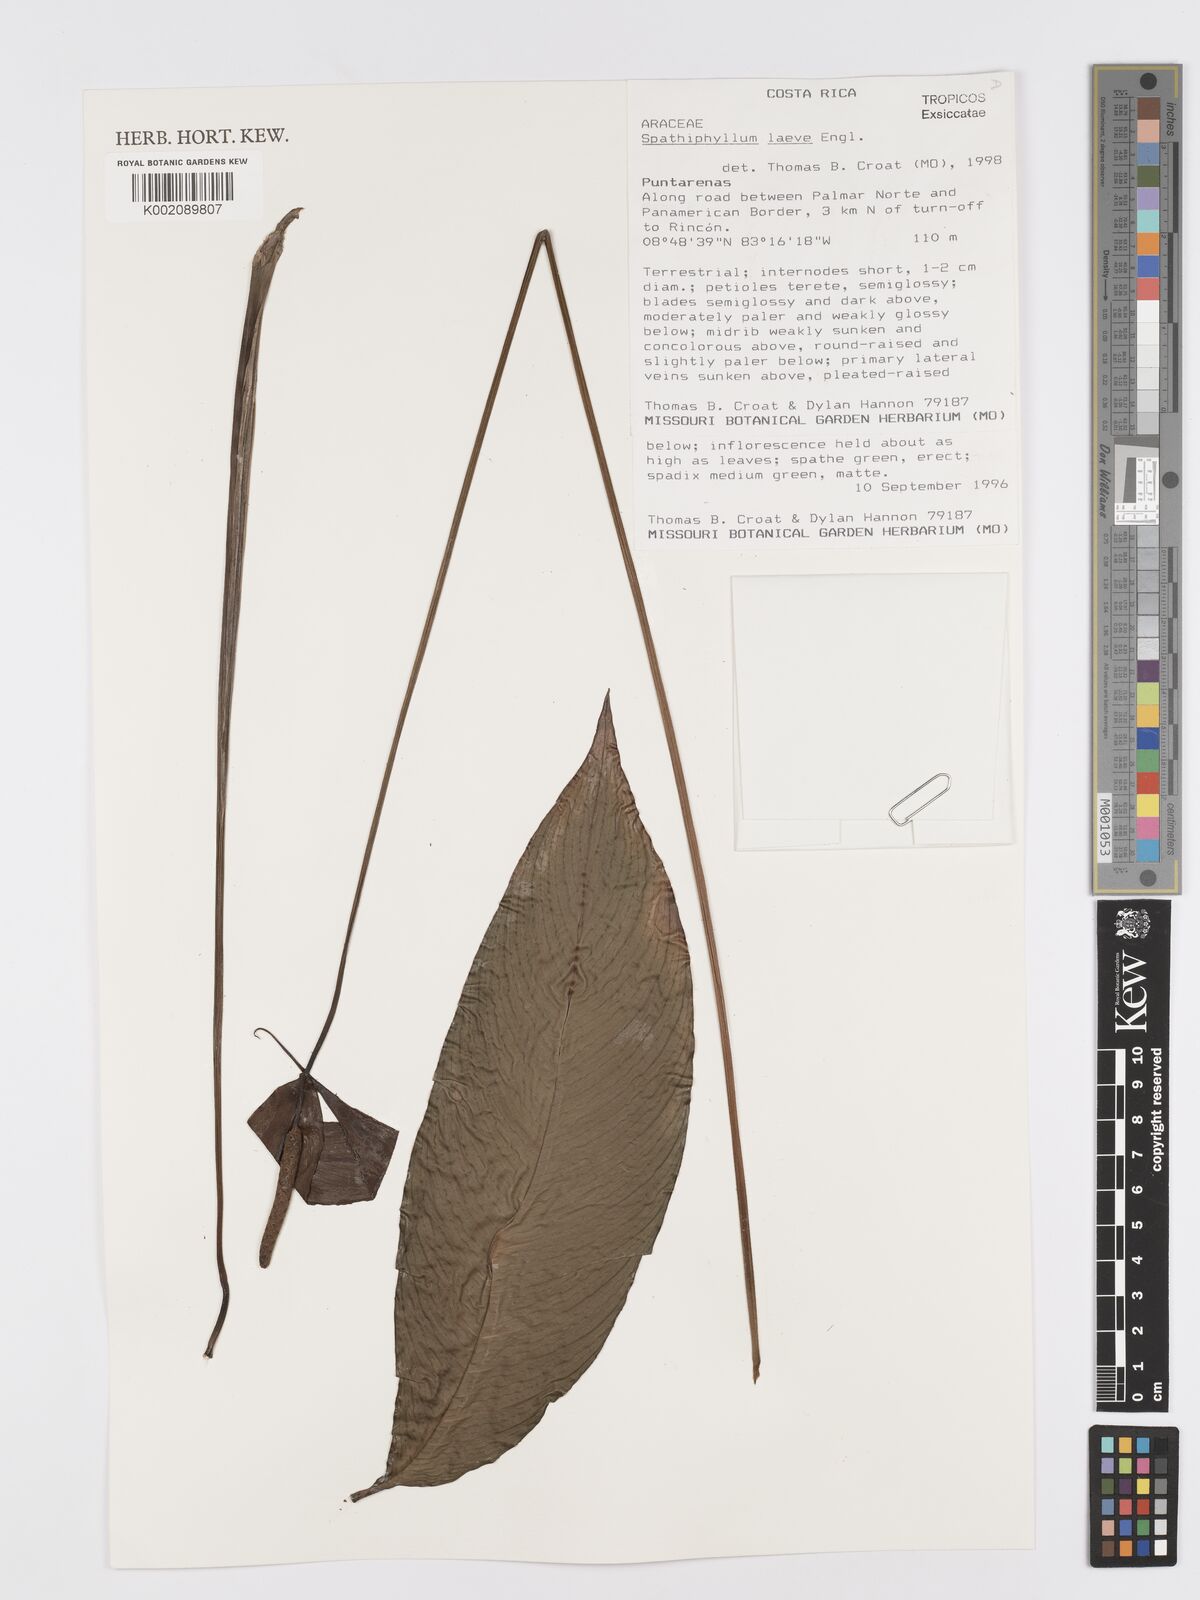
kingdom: Plantae
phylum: Tracheophyta
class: Liliopsida
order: Alismatales
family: Araceae
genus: Spathiphyllum
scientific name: Spathiphyllum laeve
